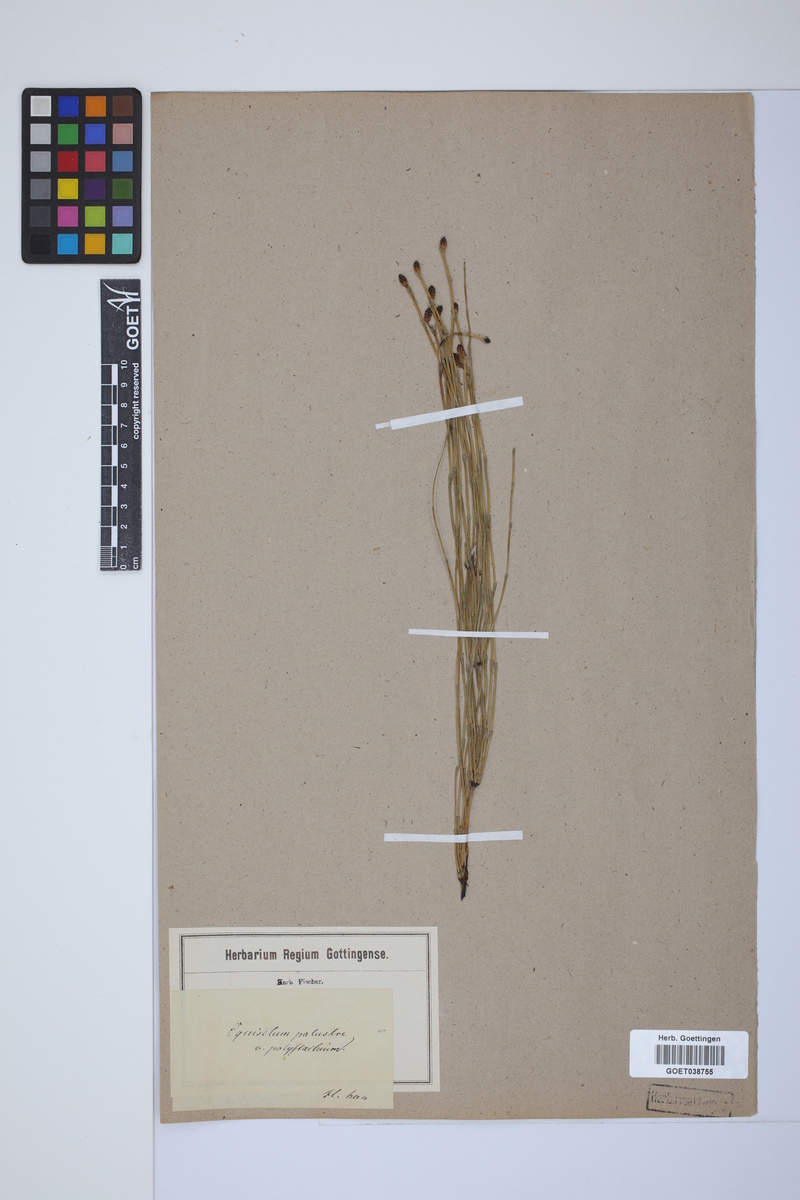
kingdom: Plantae
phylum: Tracheophyta
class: Polypodiopsida
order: Equisetales
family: Equisetaceae
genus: Equisetum
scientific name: Equisetum palustre
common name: Marsh horsetail
